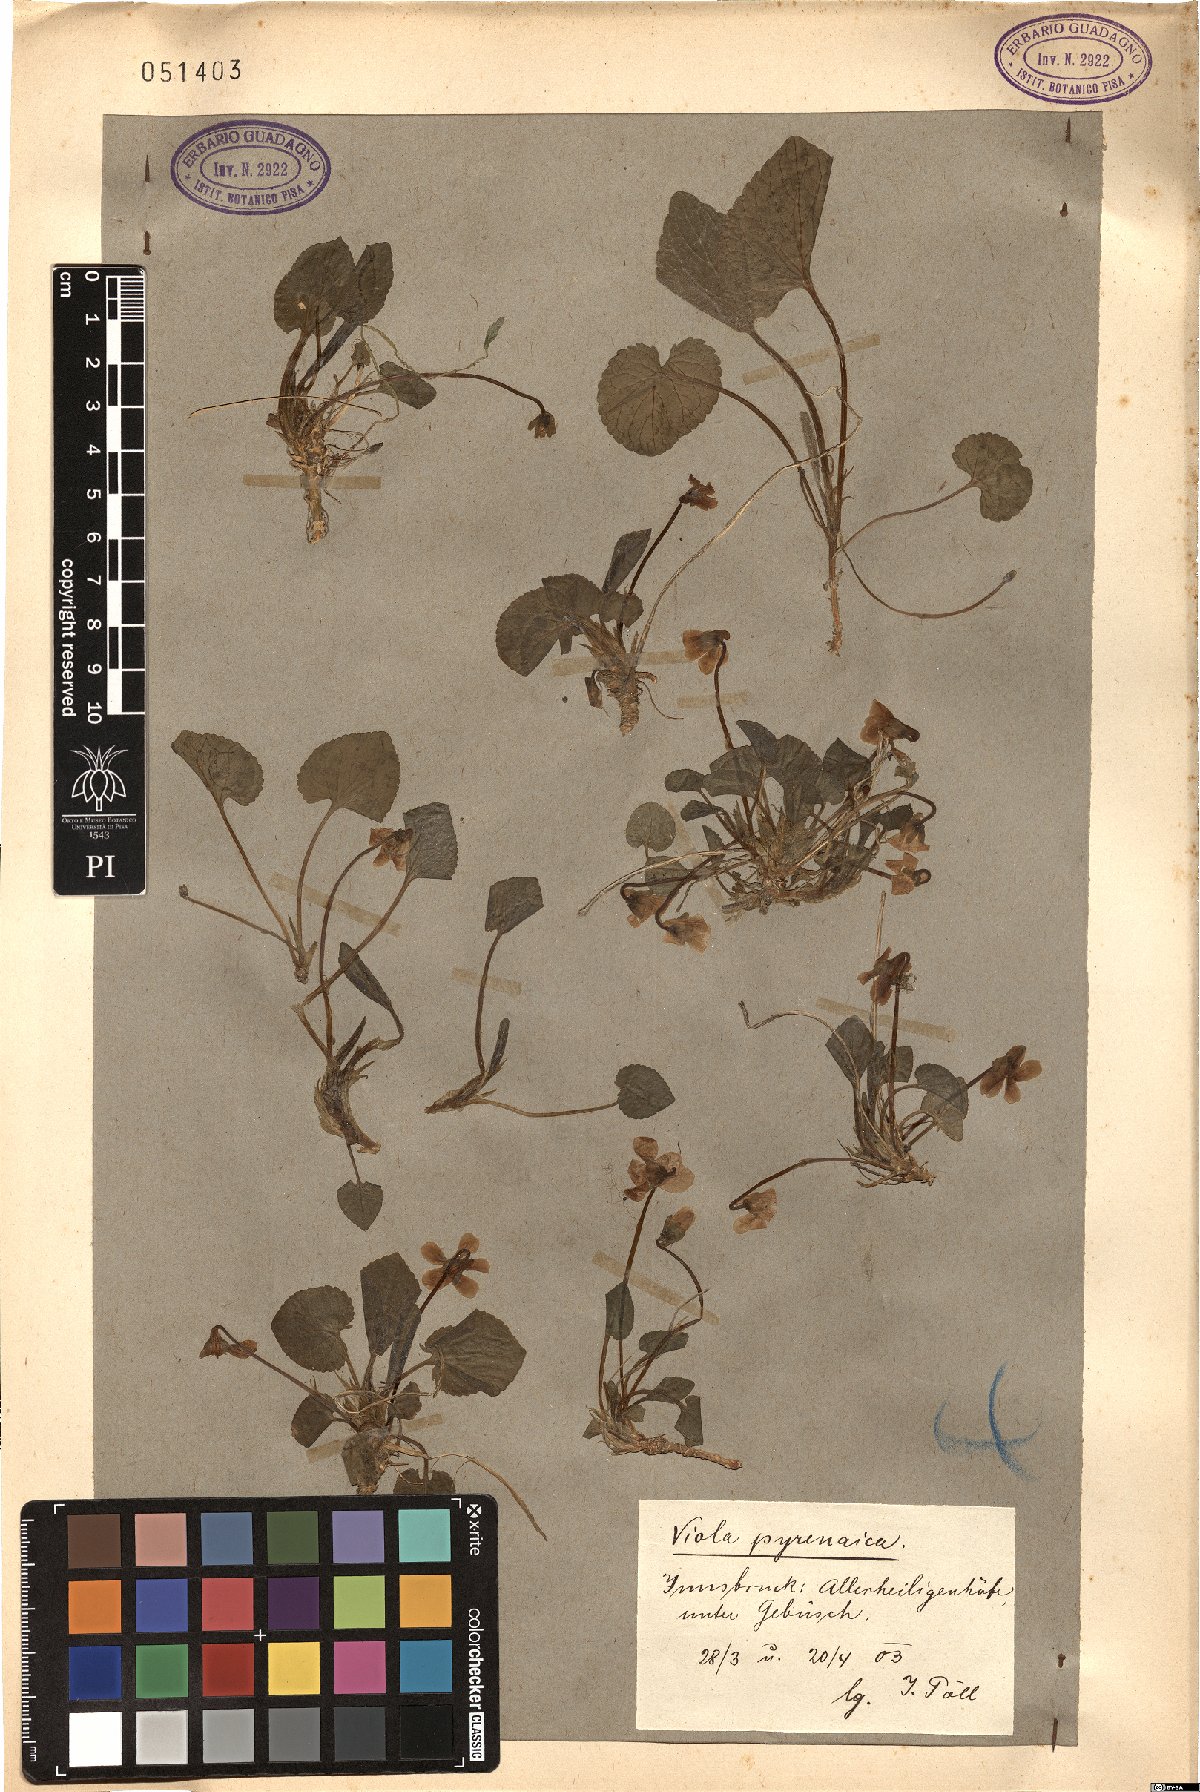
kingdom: Plantae
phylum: Tracheophyta
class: Magnoliopsida
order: Malpighiales
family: Violaceae
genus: Viola
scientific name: Viola pyrenaica
